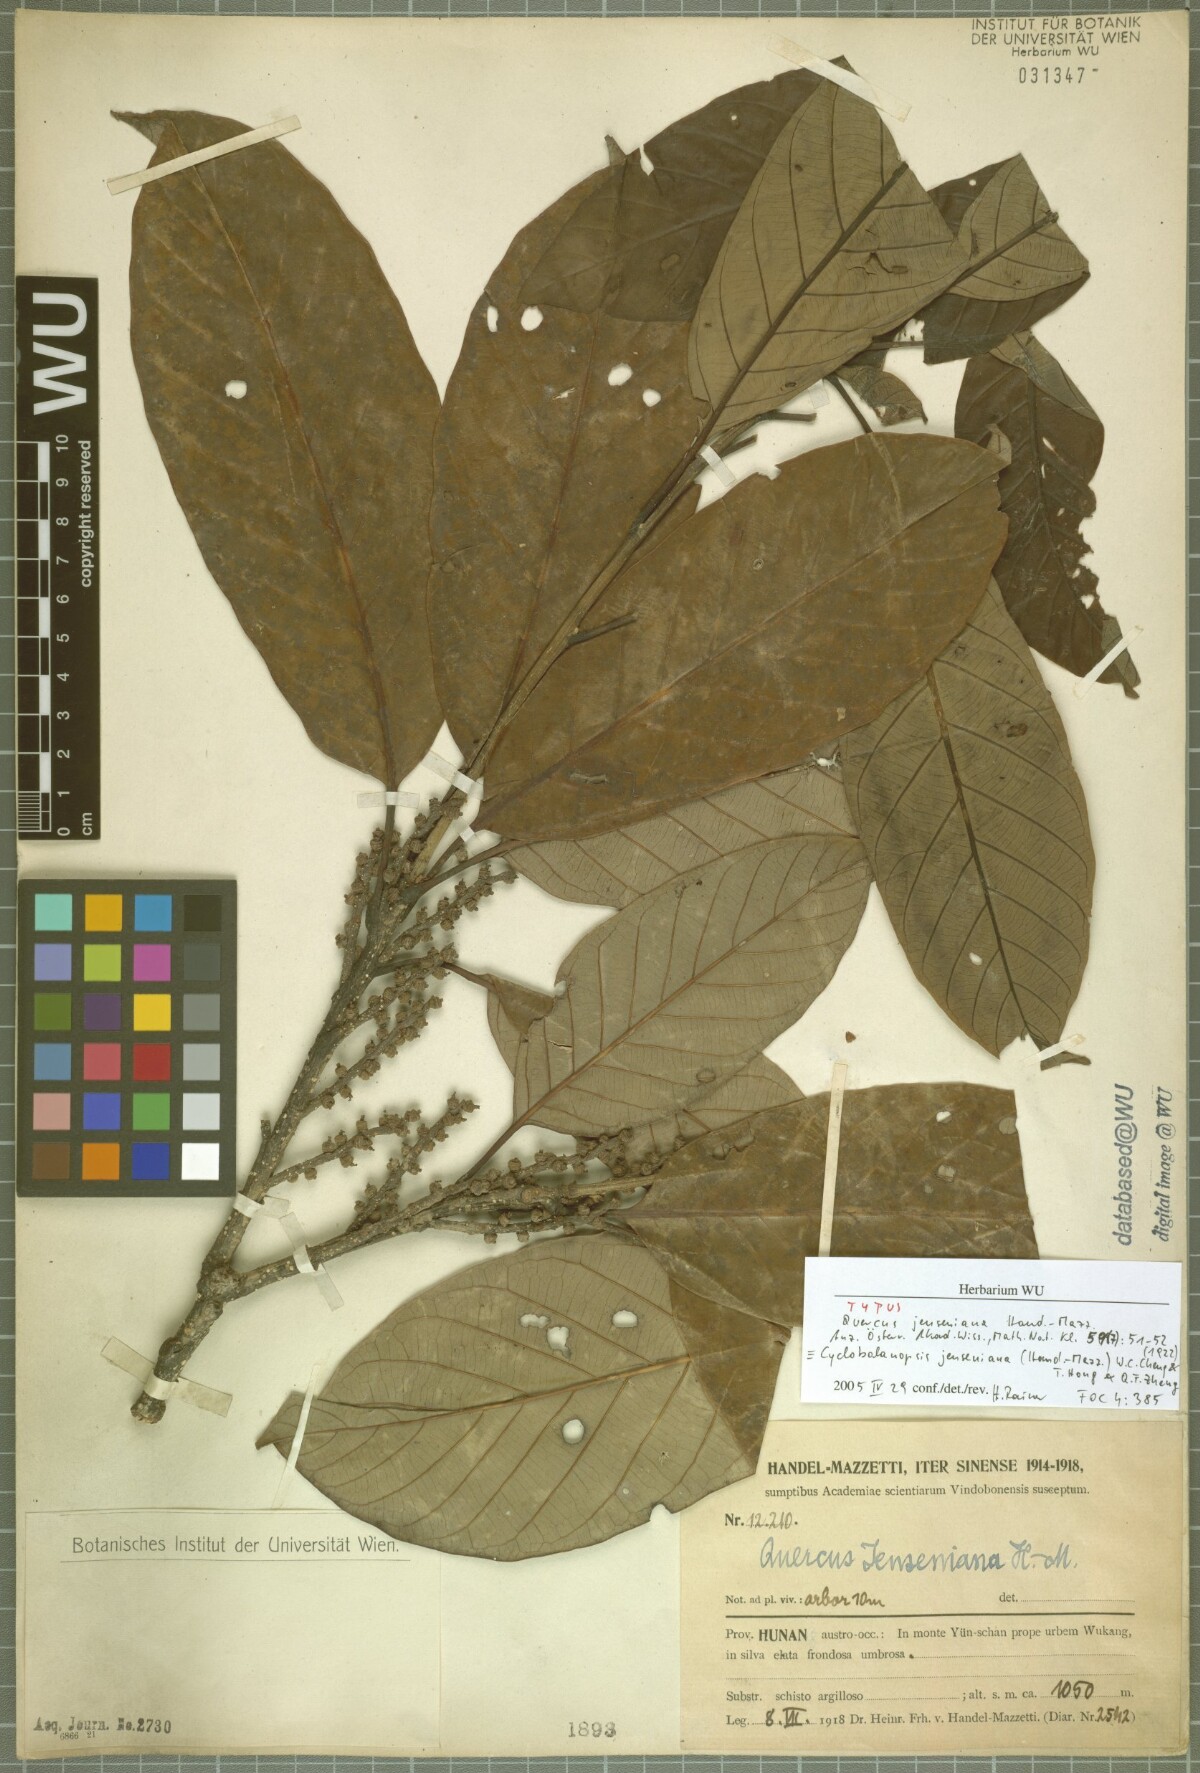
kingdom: Plantae
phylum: Tracheophyta
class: Magnoliopsida
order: Fagales
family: Fagaceae
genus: Quercus
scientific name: Quercus jenseniana
